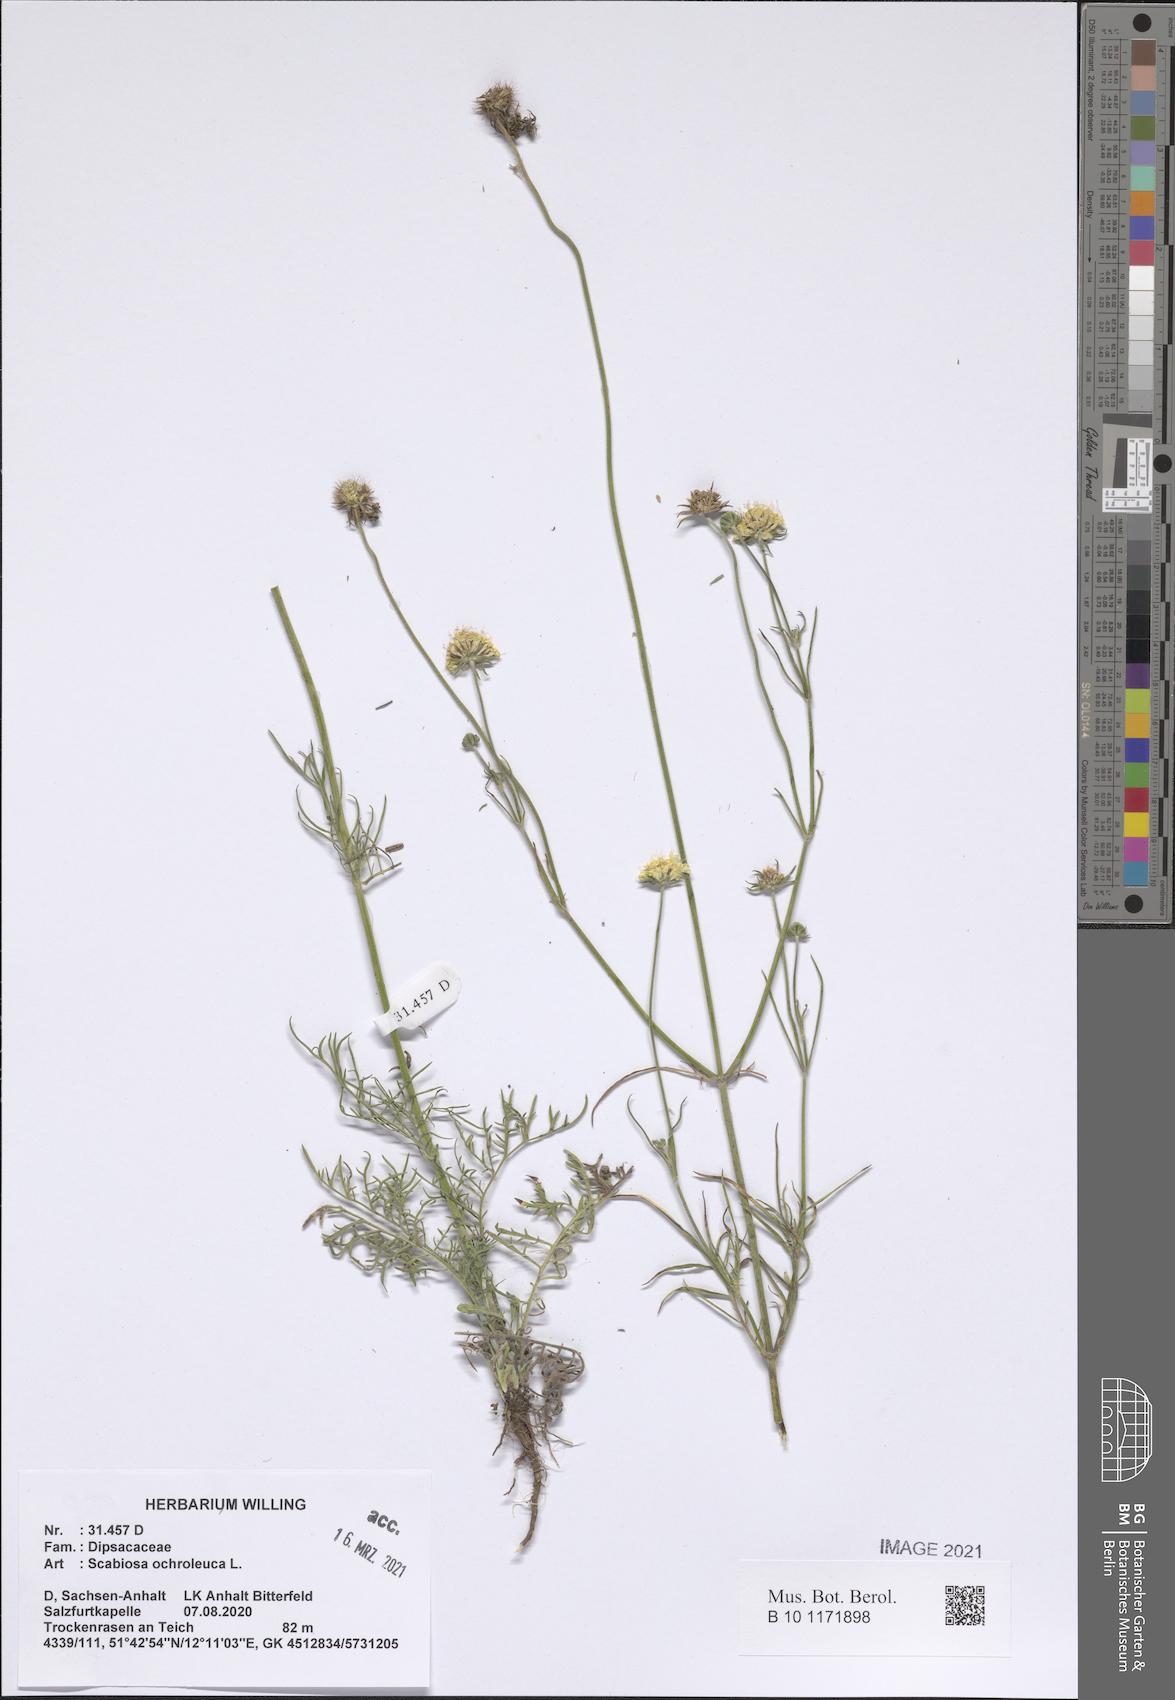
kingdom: Plantae
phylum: Tracheophyta
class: Magnoliopsida
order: Dipsacales
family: Caprifoliaceae
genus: Scabiosa
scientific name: Scabiosa ochroleuca
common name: Cream pincushions
